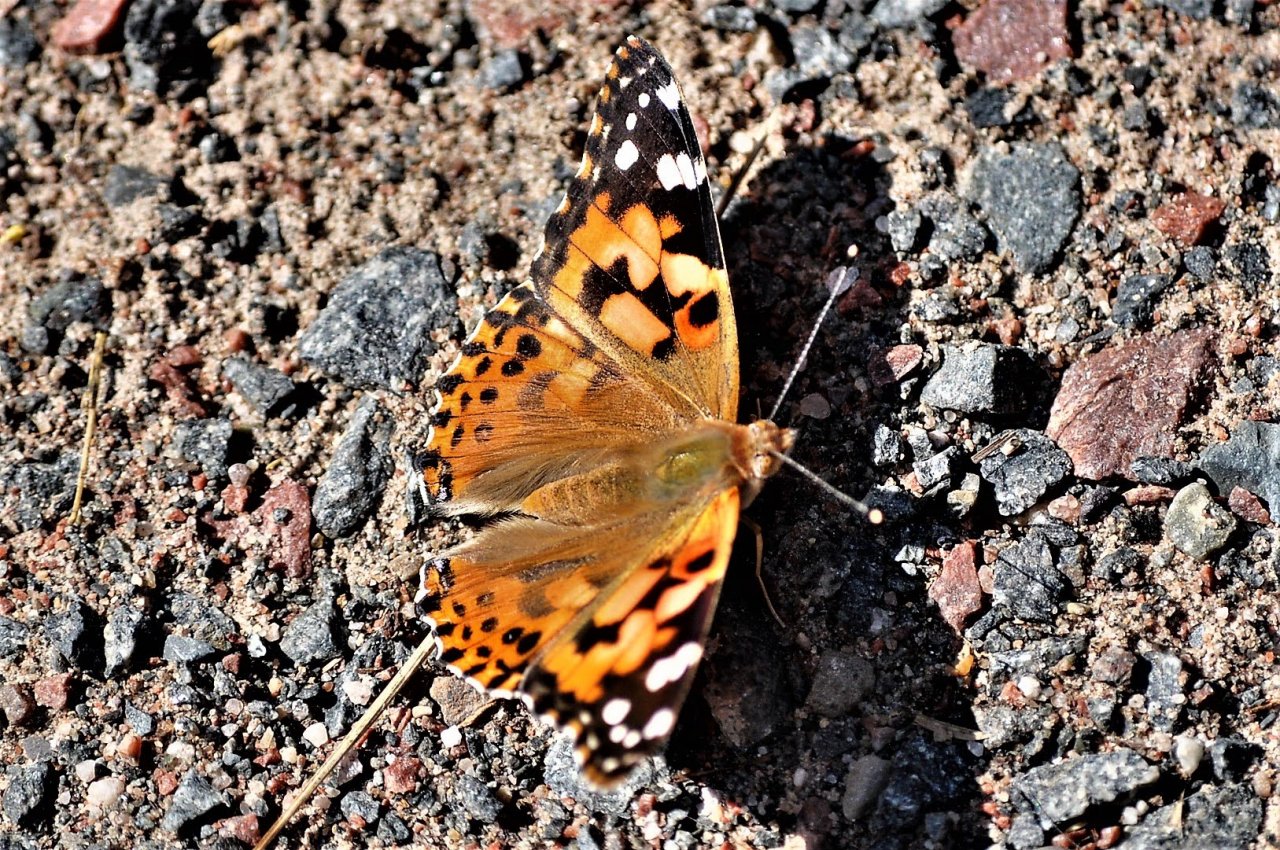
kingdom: Animalia
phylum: Arthropoda
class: Insecta
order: Lepidoptera
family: Nymphalidae
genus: Vanessa
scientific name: Vanessa cardui
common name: Painted Lady
